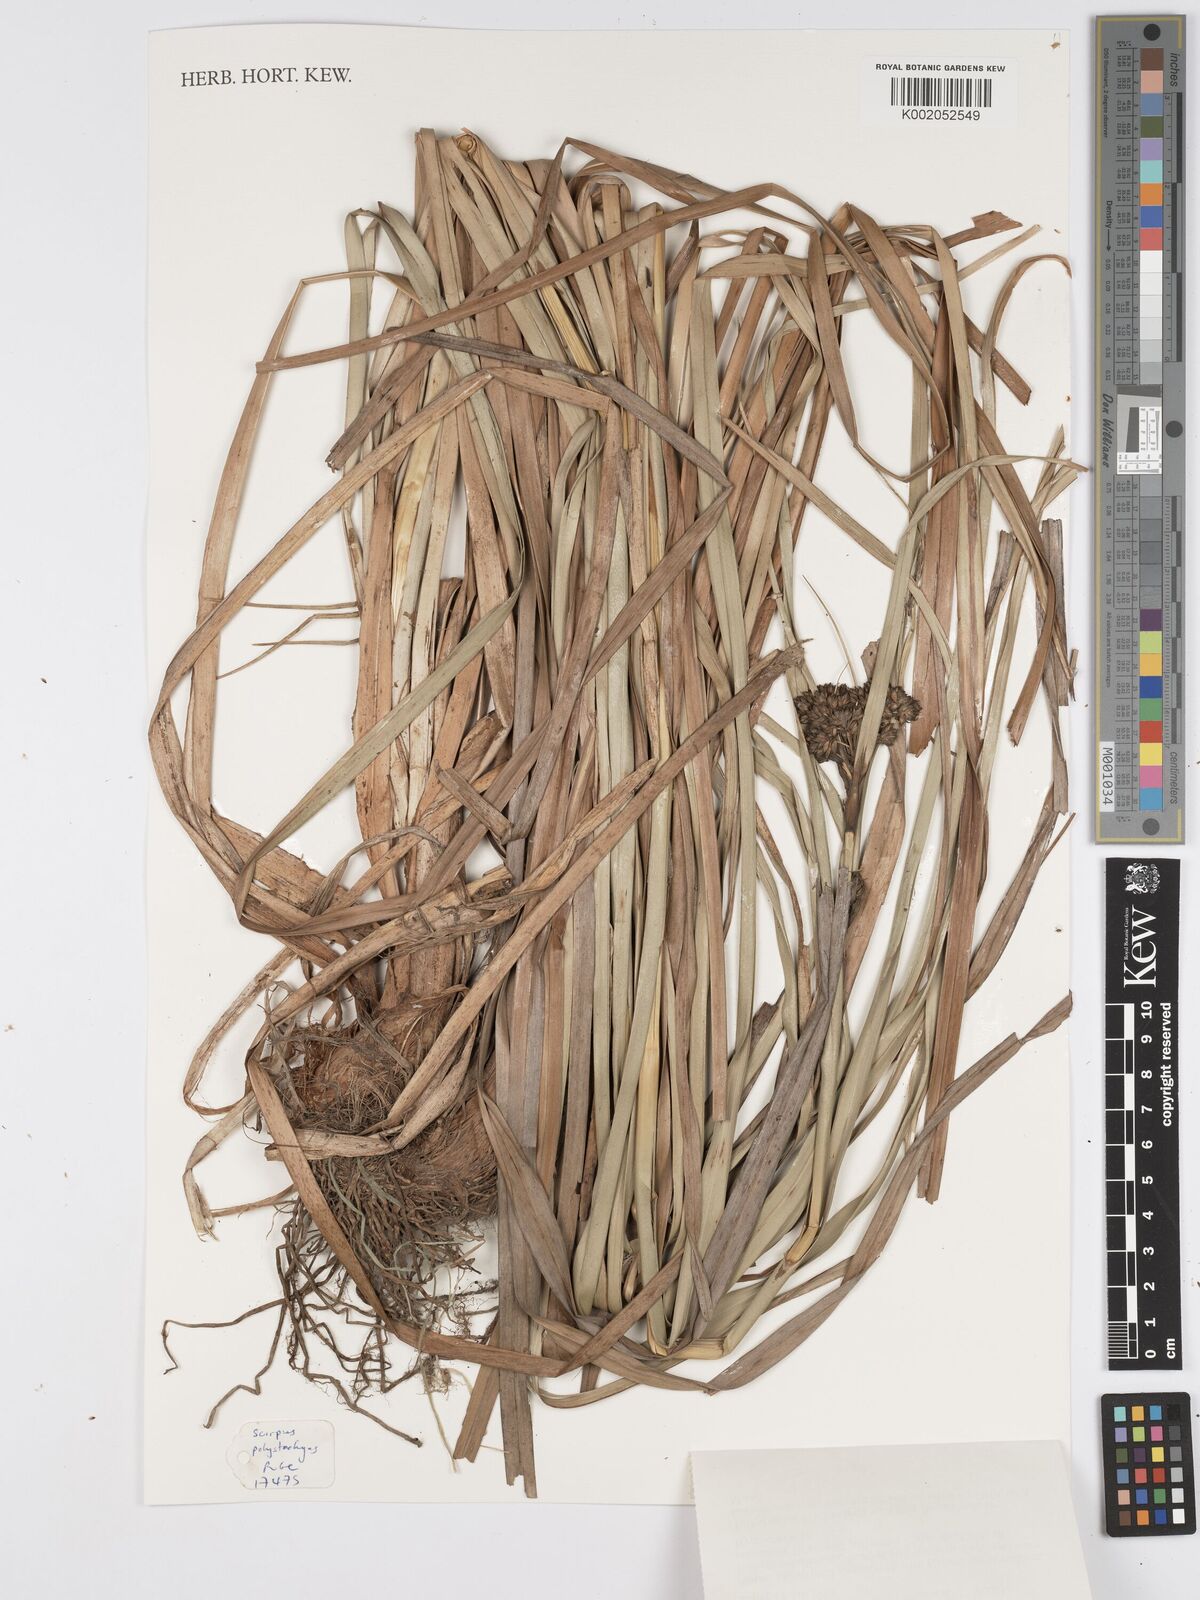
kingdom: Plantae
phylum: Tracheophyta
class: Liliopsida
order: Poales
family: Cyperaceae
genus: Scirpus
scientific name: Scirpus polystachyus
